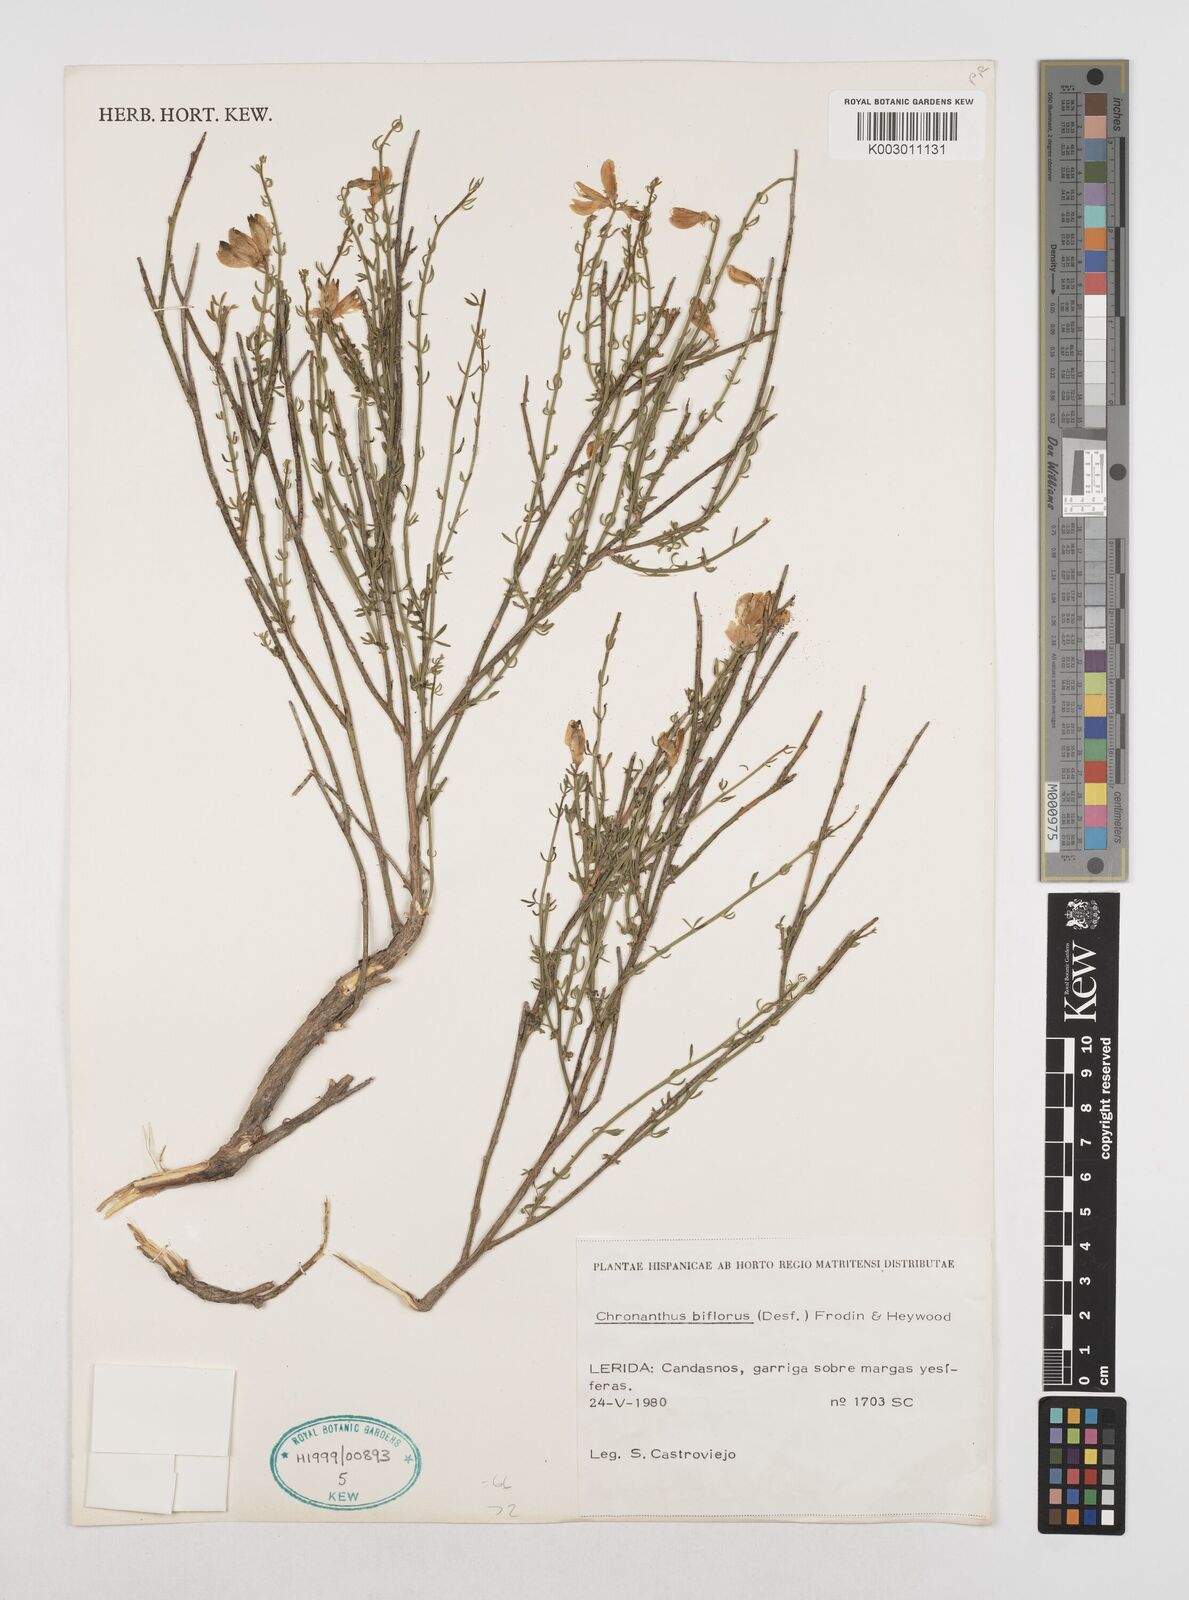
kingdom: Plantae
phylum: Tracheophyta
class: Magnoliopsida
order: Fabales
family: Fabaceae
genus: Cytisus
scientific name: Cytisus fontanesii
